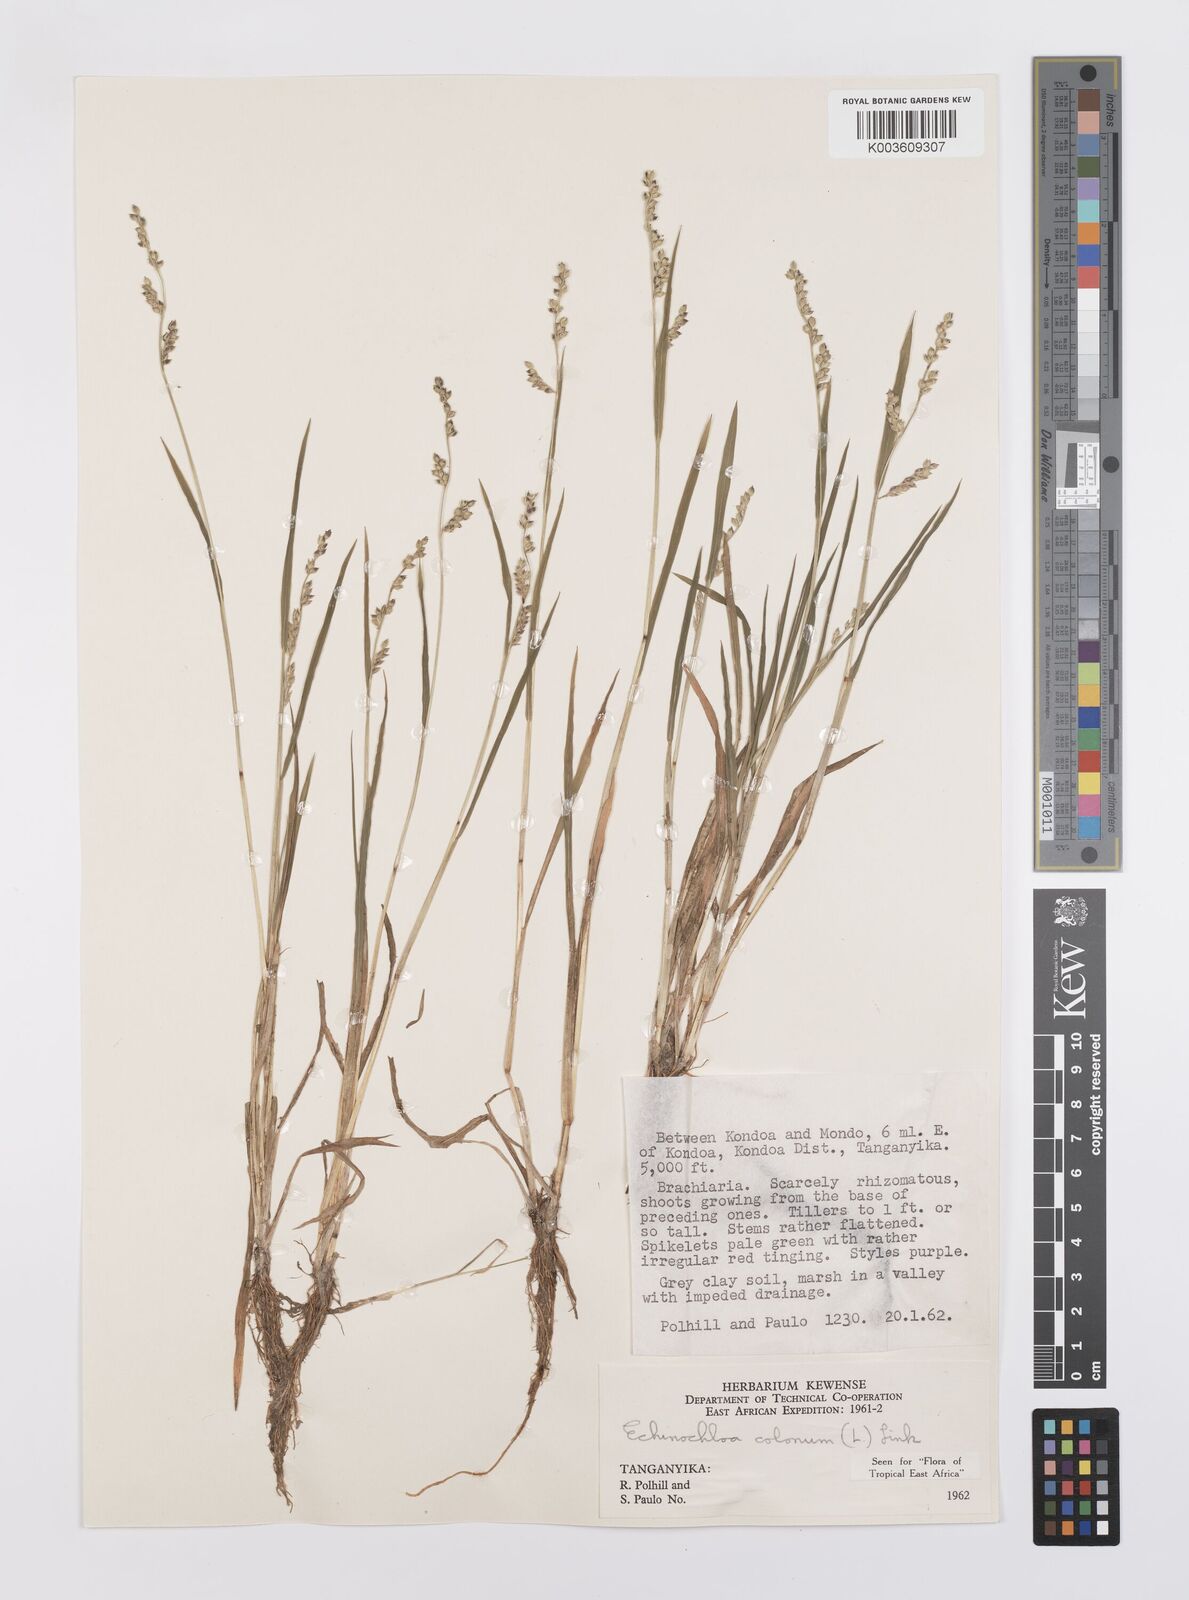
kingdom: Plantae
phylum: Tracheophyta
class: Liliopsida
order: Poales
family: Poaceae
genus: Echinochloa
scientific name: Echinochloa colonum
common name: Jungle rice
